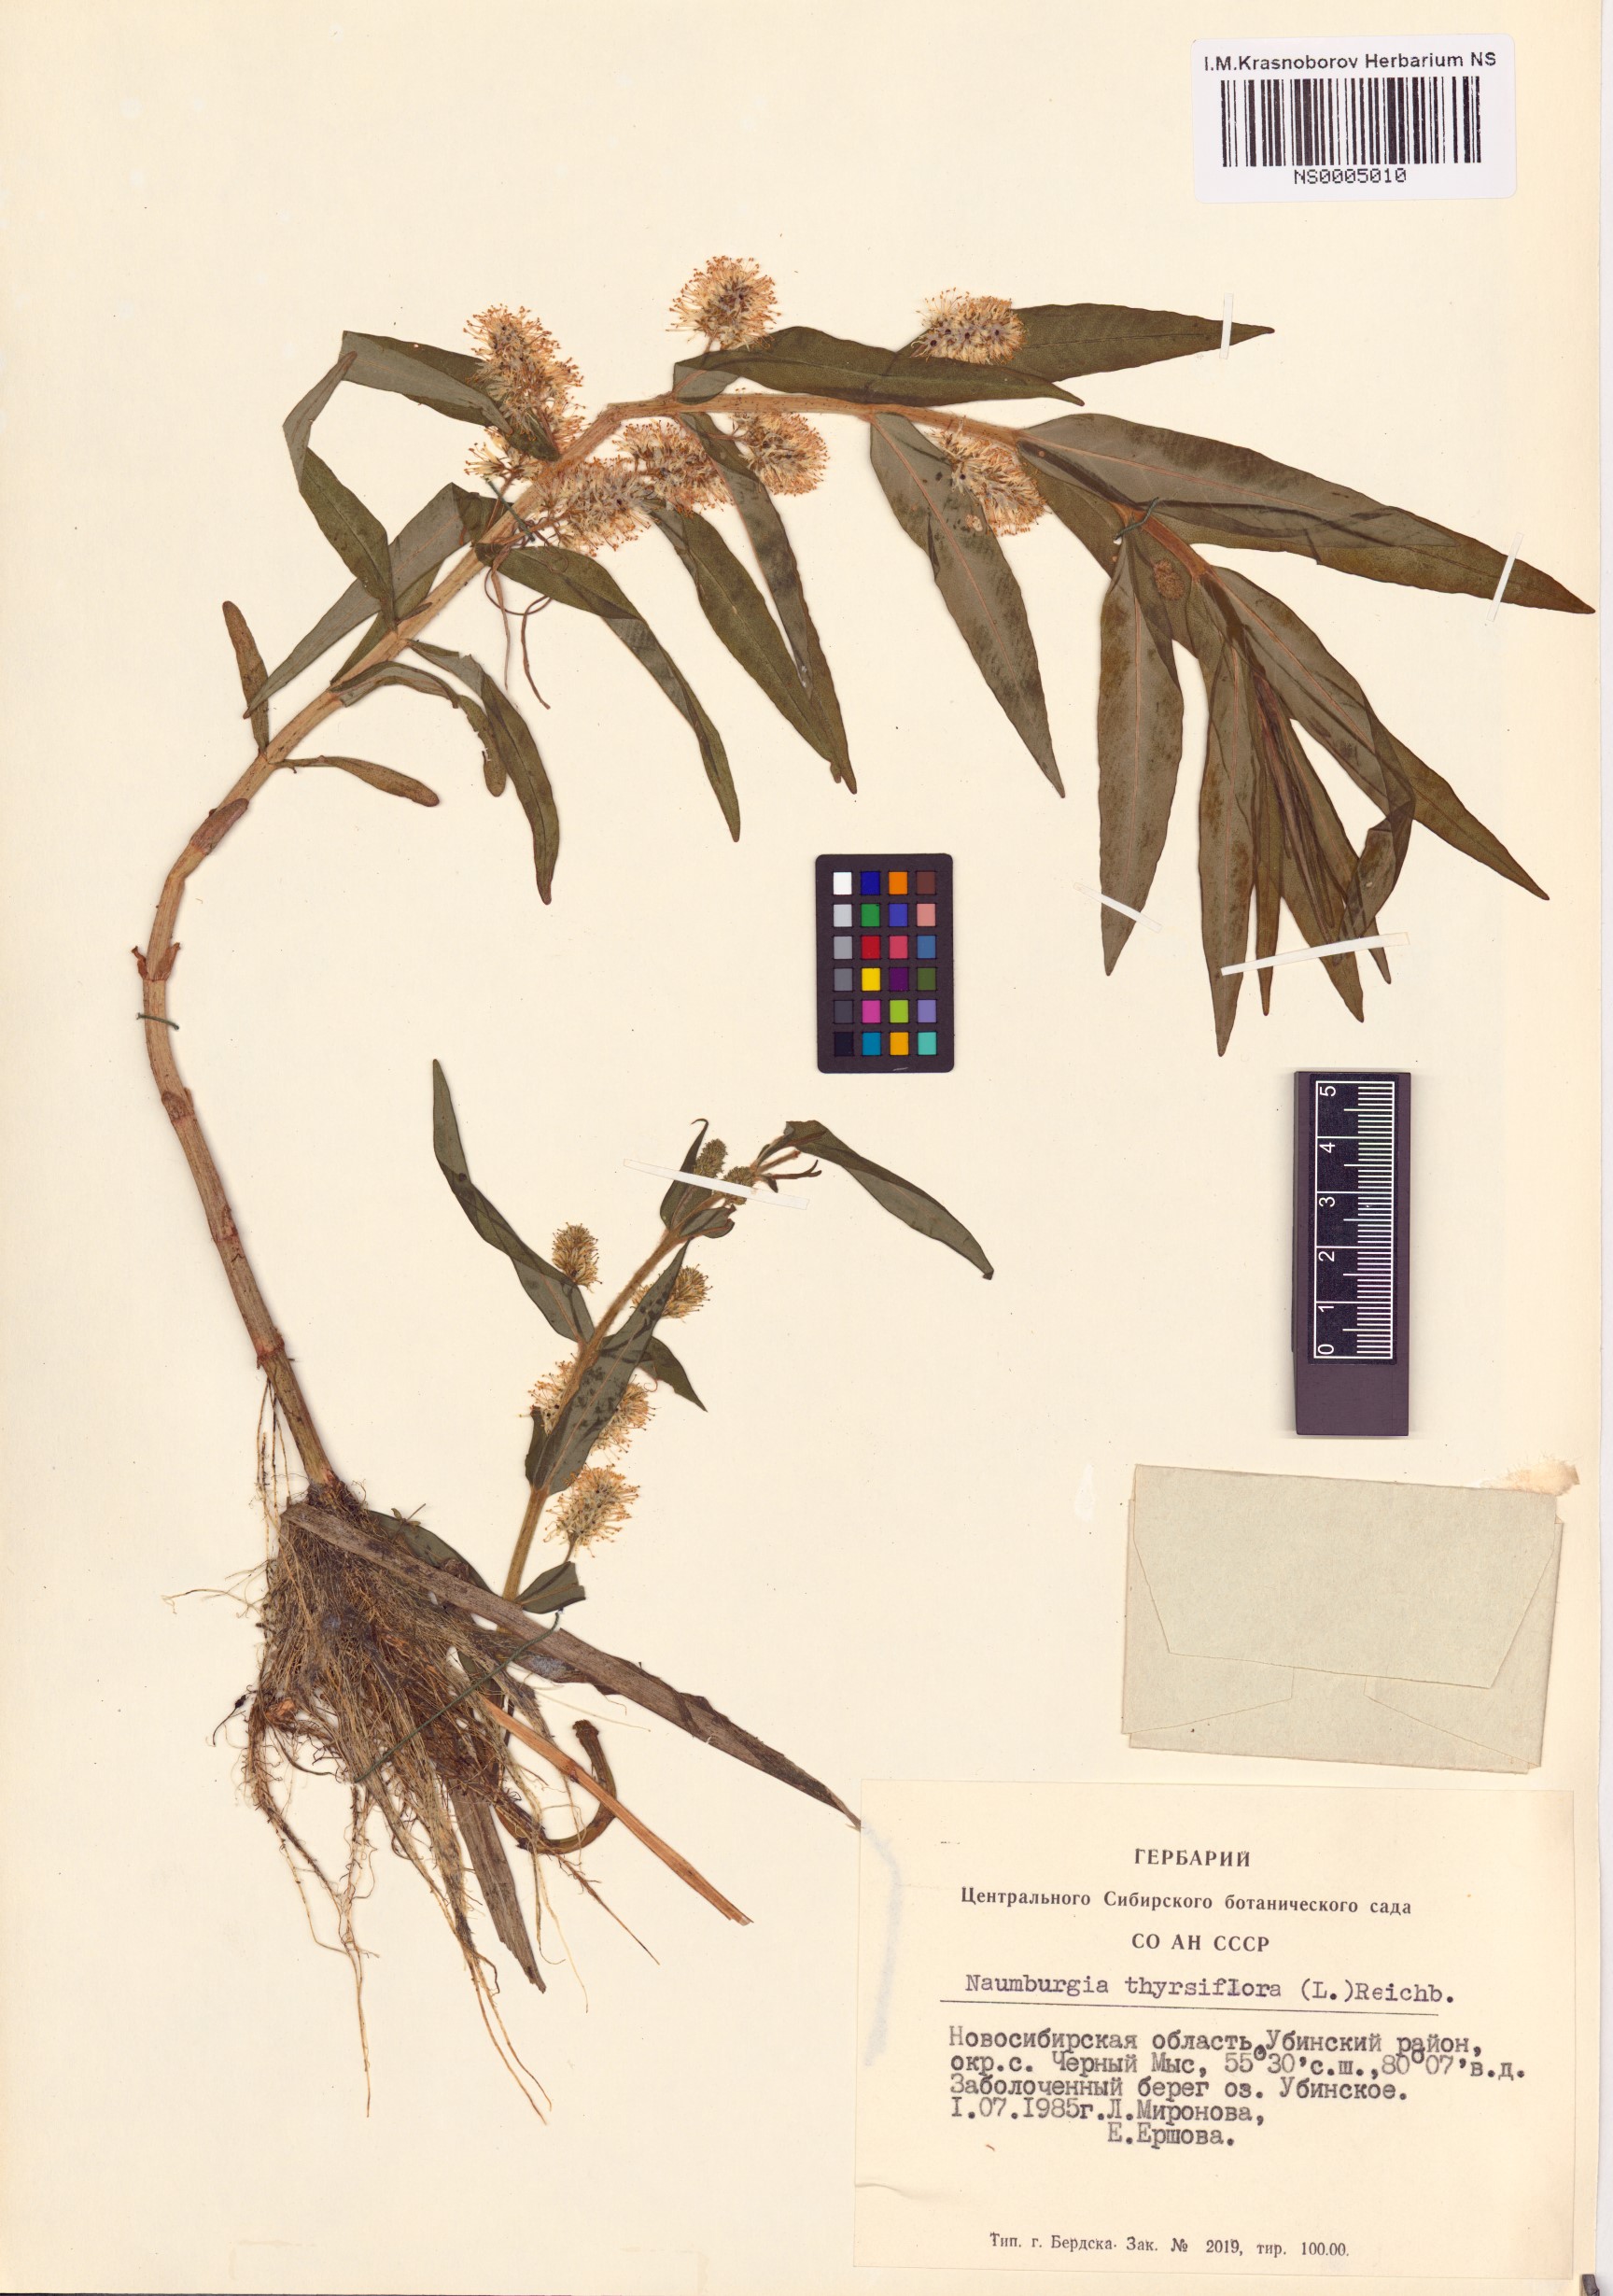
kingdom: Plantae
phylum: Tracheophyta
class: Magnoliopsida
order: Ericales
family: Primulaceae
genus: Lysimachia
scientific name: Lysimachia thyrsiflora
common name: Tufted loosestrife
